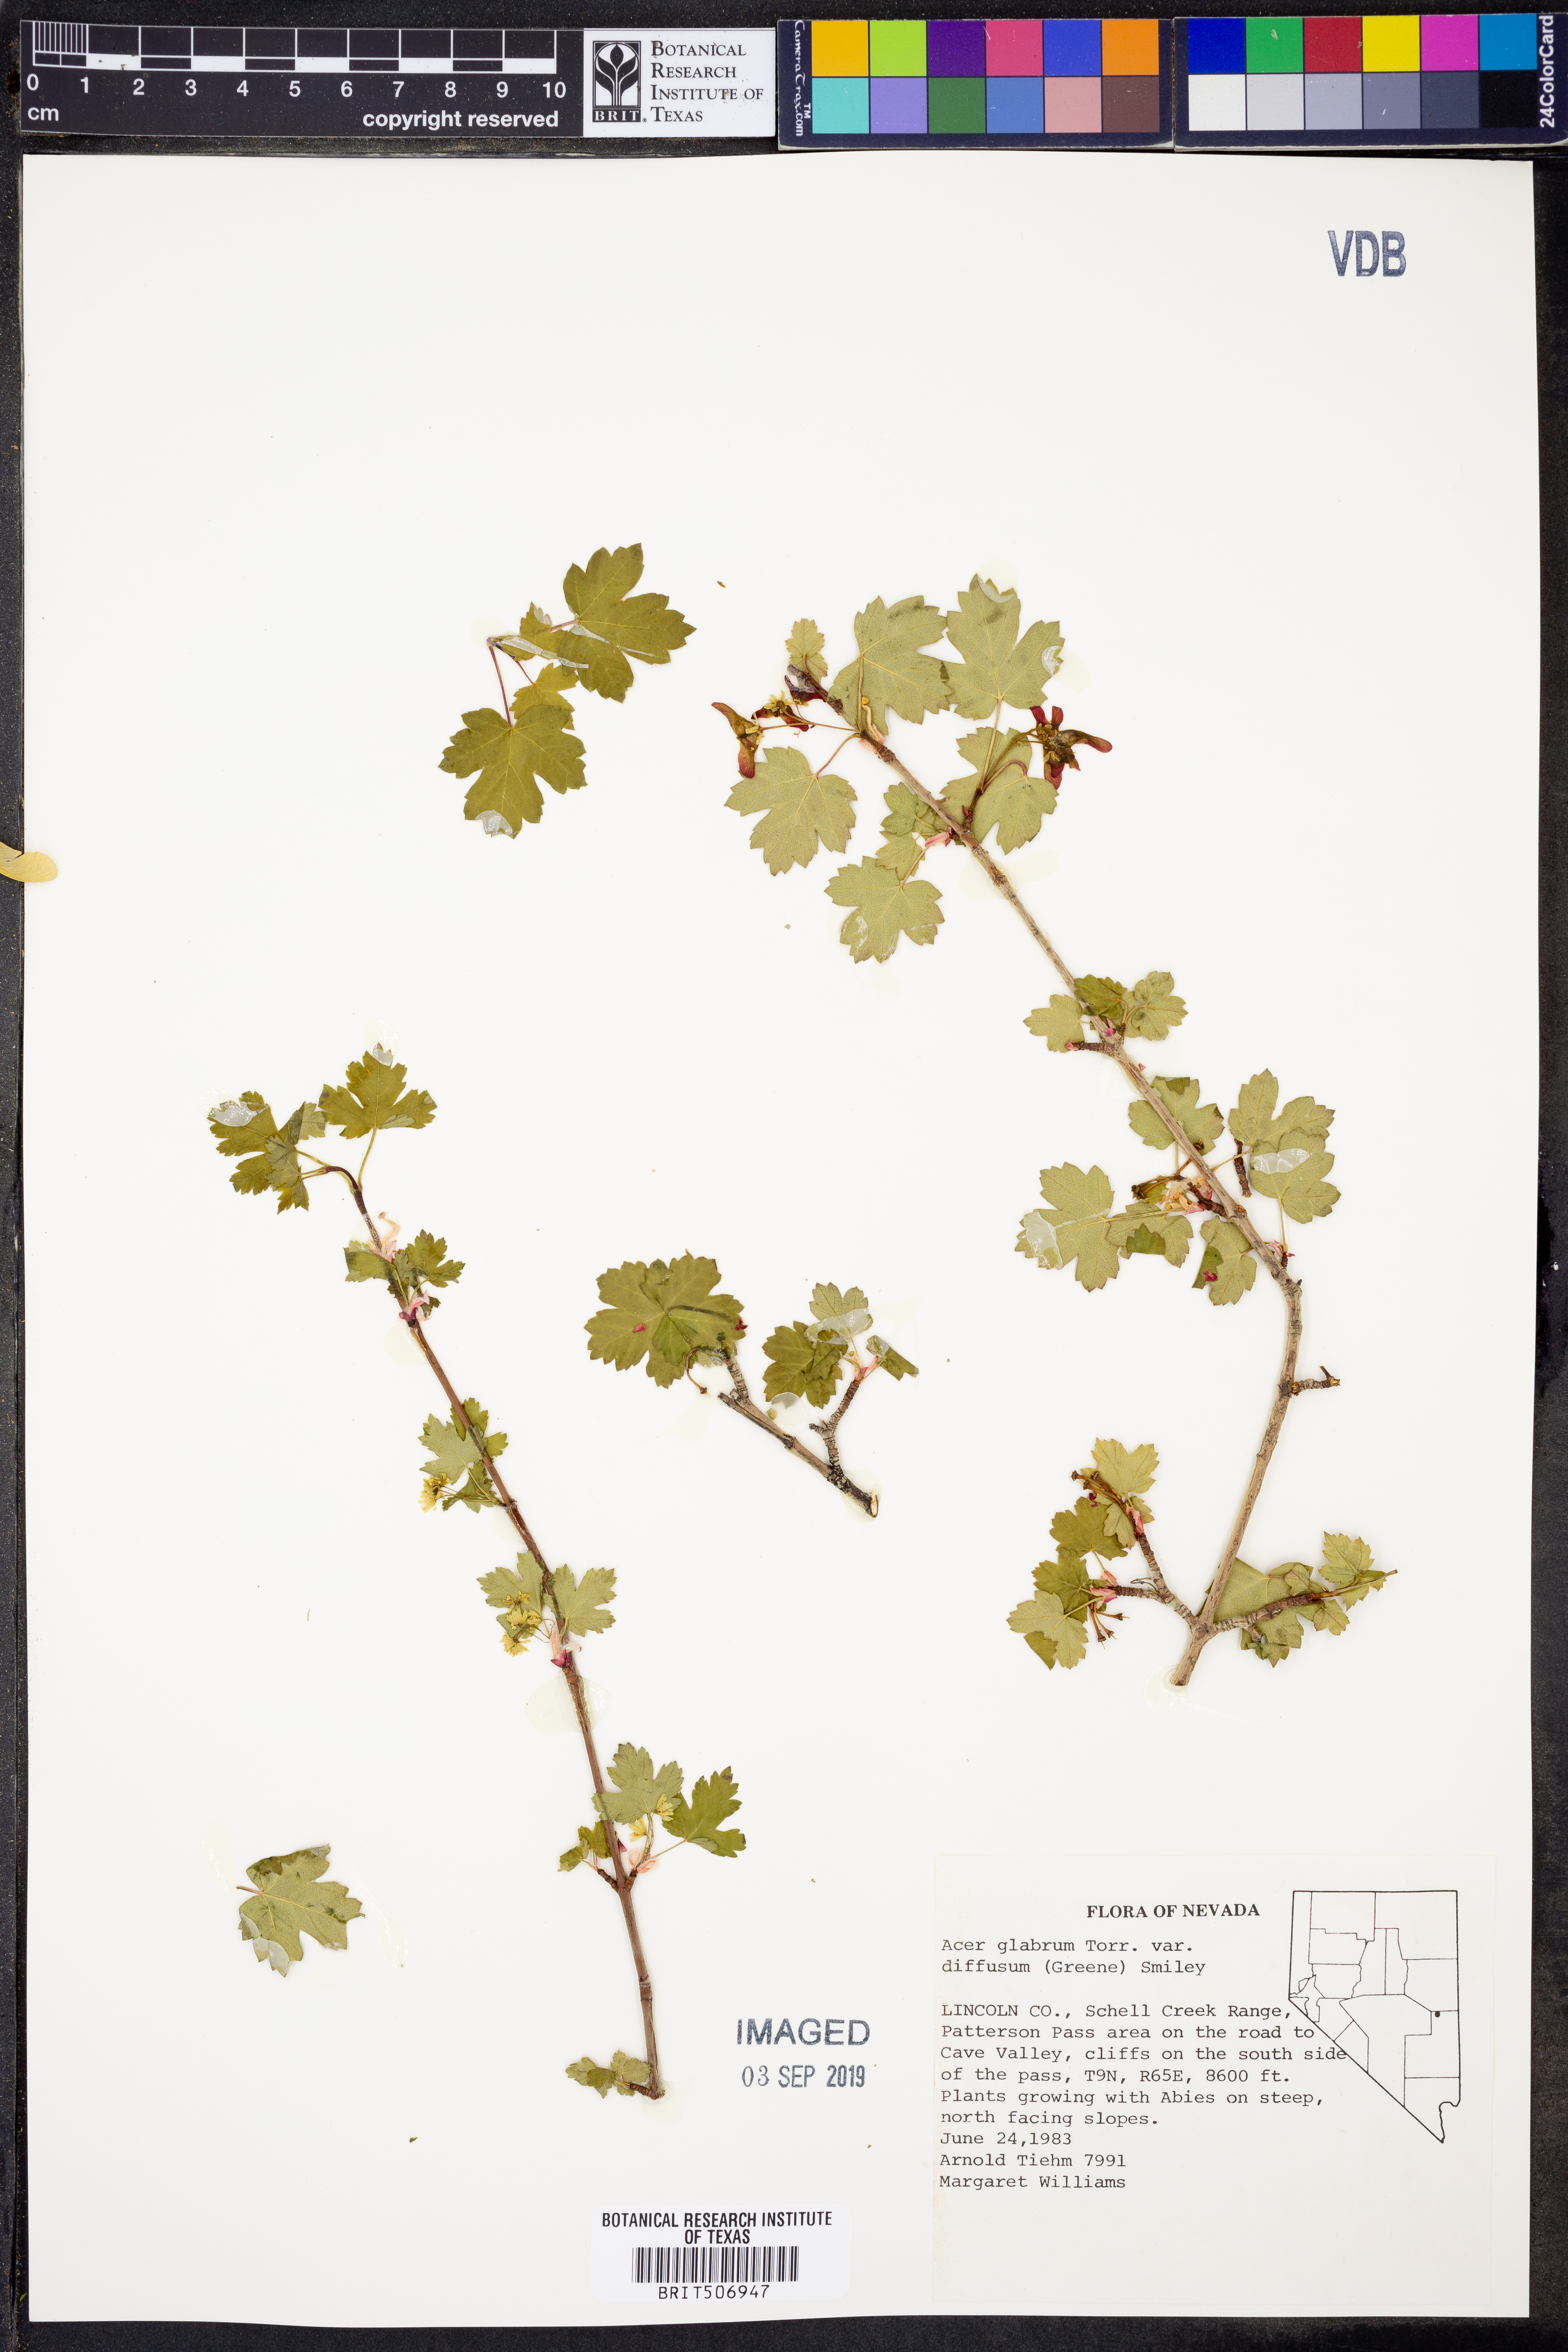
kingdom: Plantae
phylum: Tracheophyta
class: Magnoliopsida
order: Sapindales
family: Sapindaceae
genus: Acer
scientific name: Acer glabrum
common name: Rocky mountain maple
